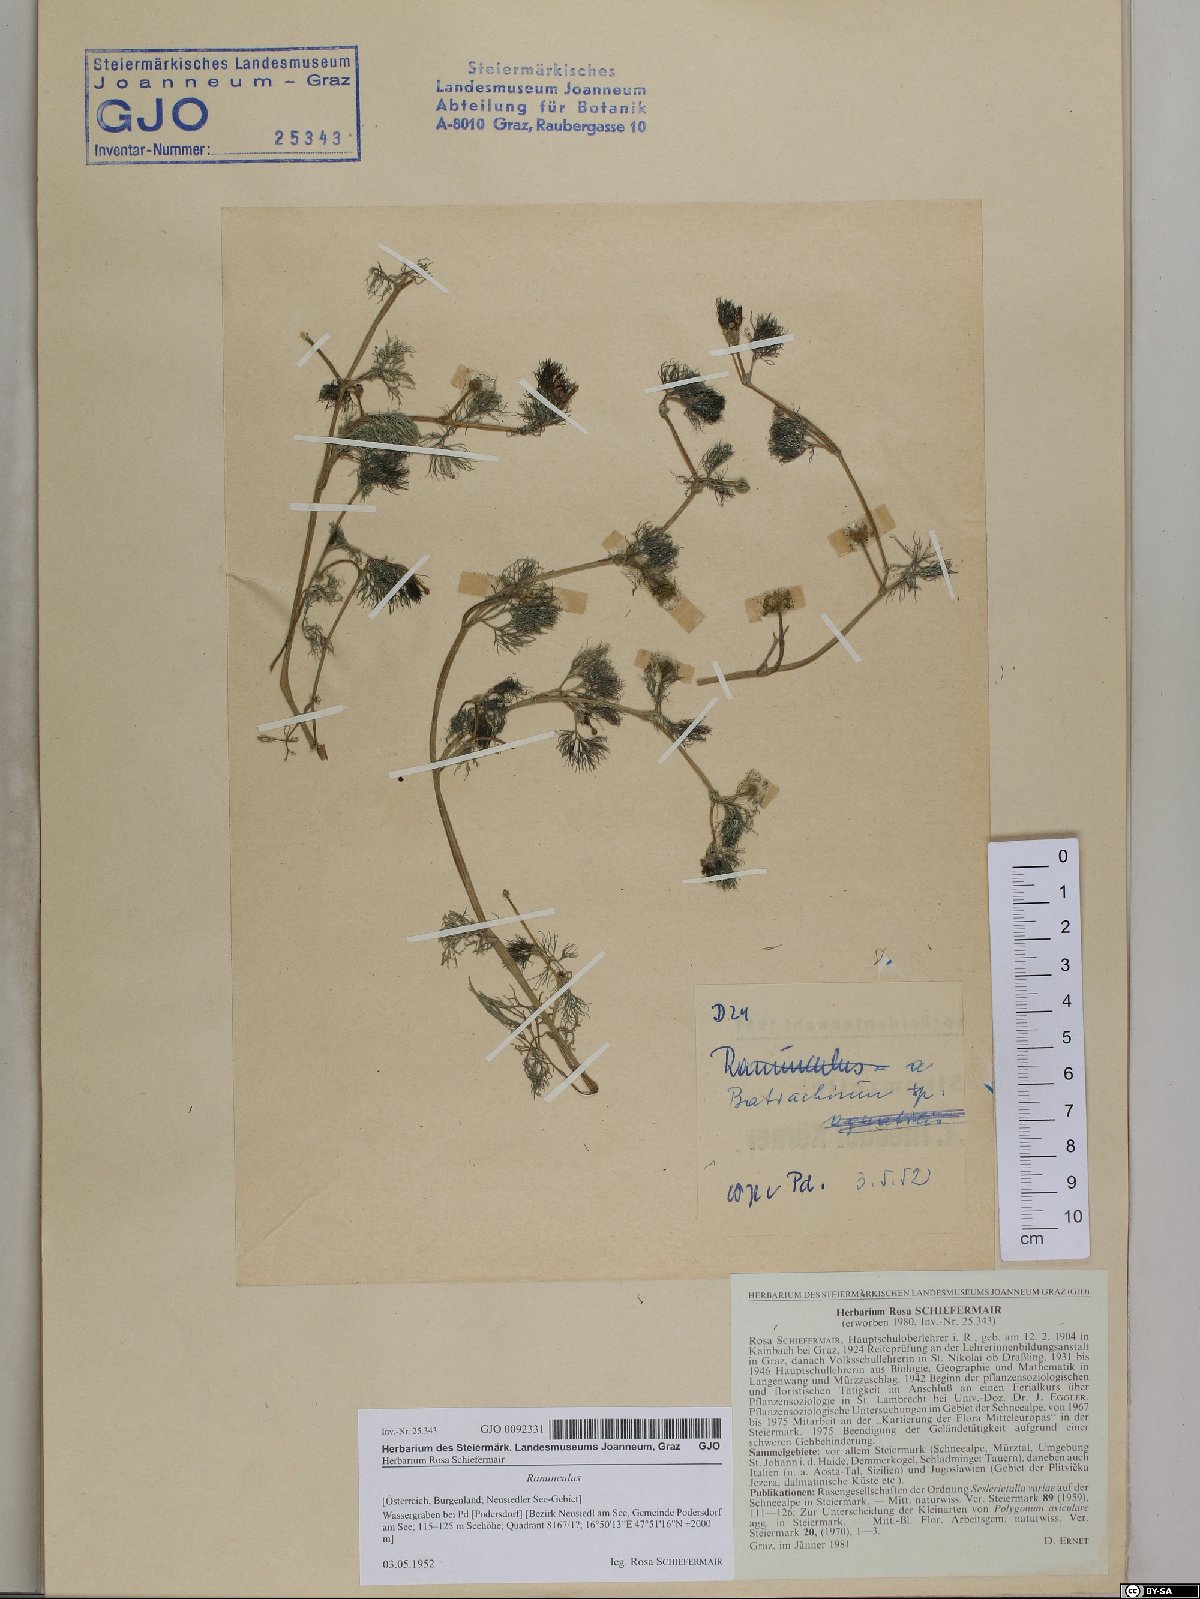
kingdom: Plantae
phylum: Tracheophyta
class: Magnoliopsida
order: Ranunculales
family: Ranunculaceae
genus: Ranunculus
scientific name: Ranunculus
